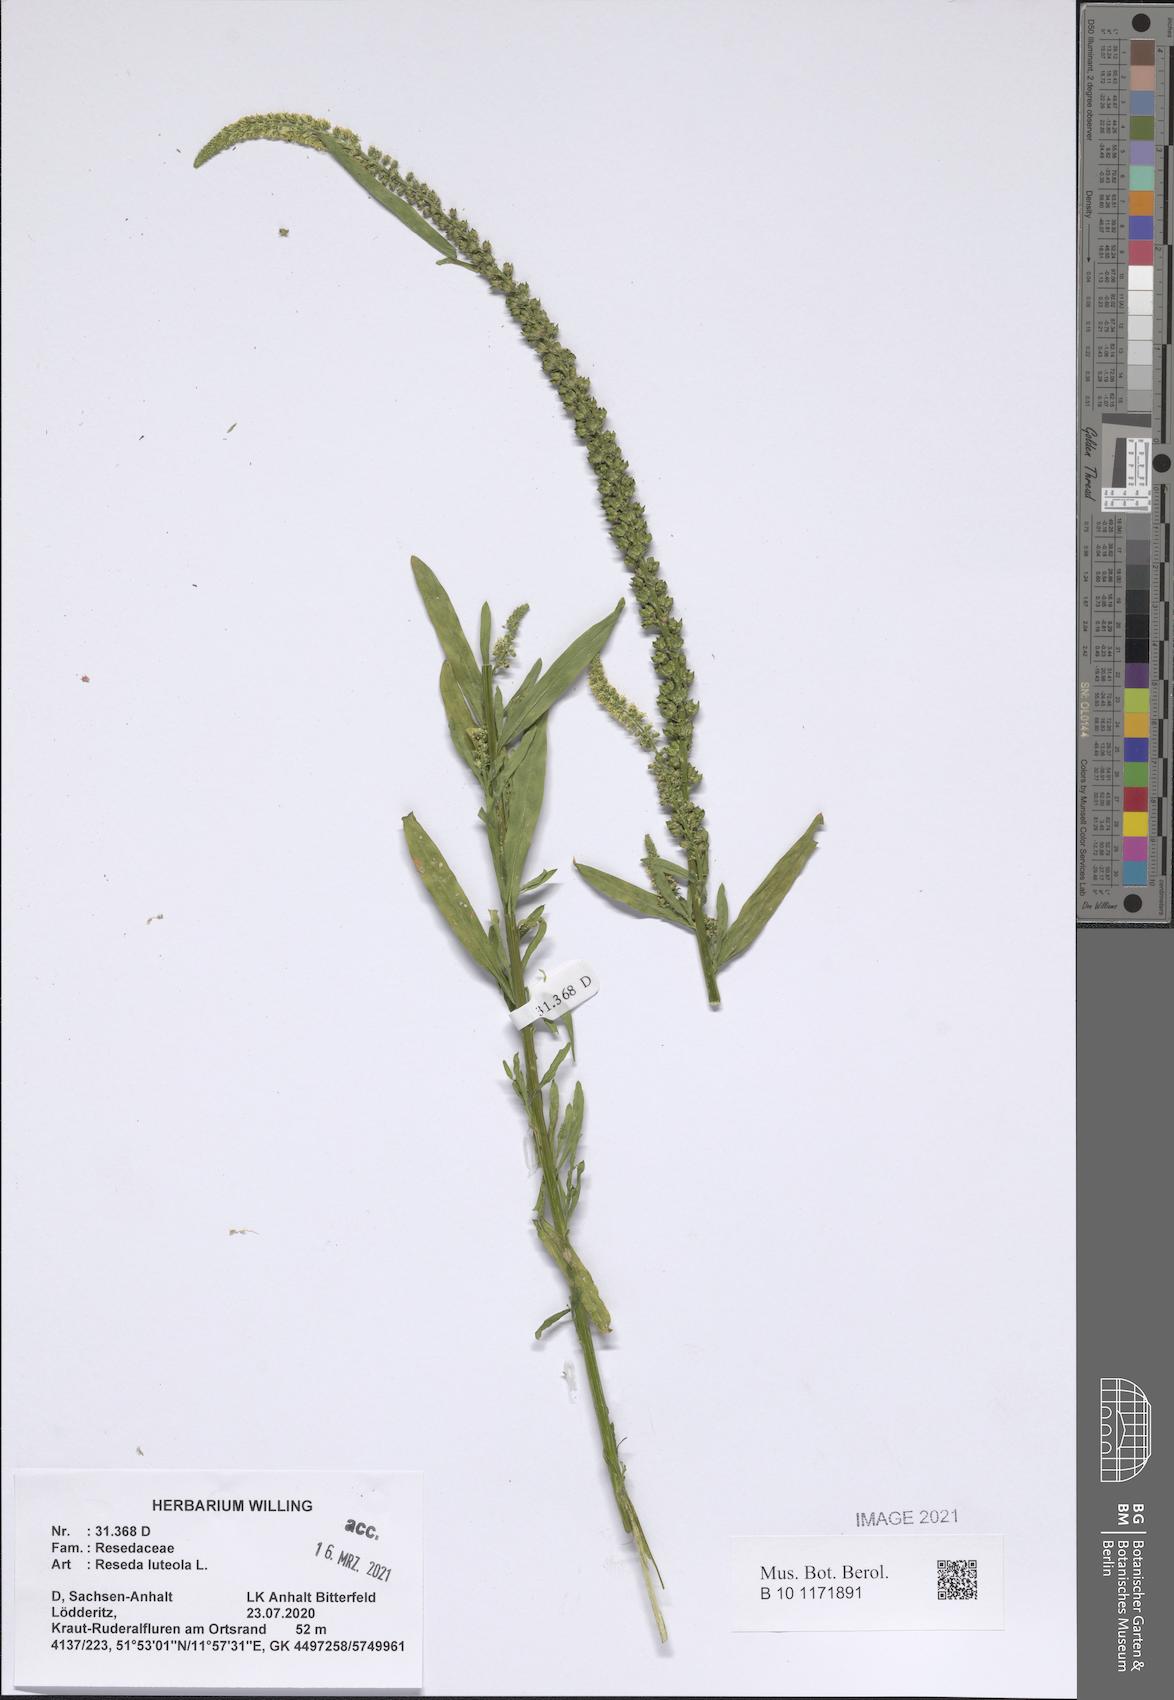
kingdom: Plantae
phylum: Tracheophyta
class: Magnoliopsida
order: Brassicales
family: Resedaceae
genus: Reseda
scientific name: Reseda luteola
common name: Weld
